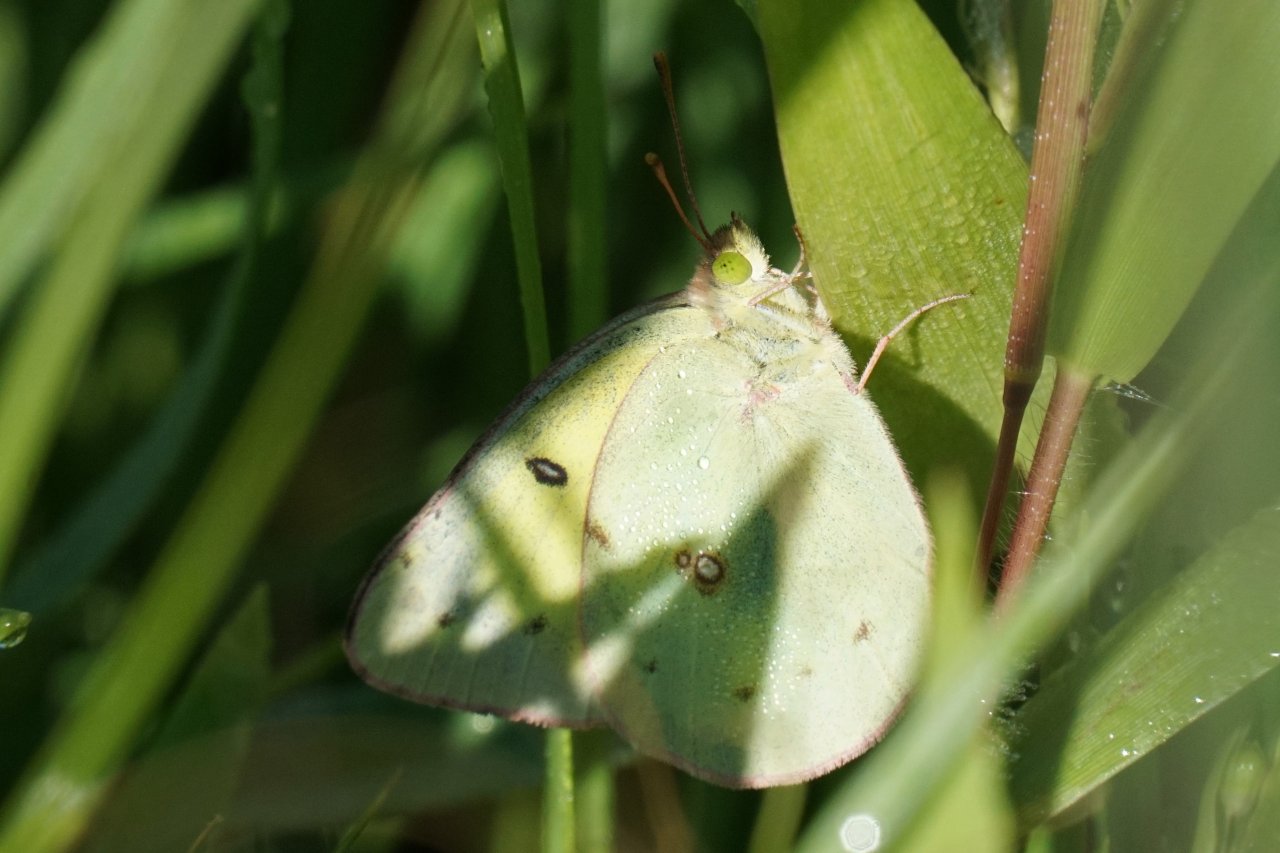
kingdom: Animalia
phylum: Arthropoda
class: Insecta
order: Lepidoptera
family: Pieridae
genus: Colias
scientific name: Colias philodice
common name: Clouded Sulphur
